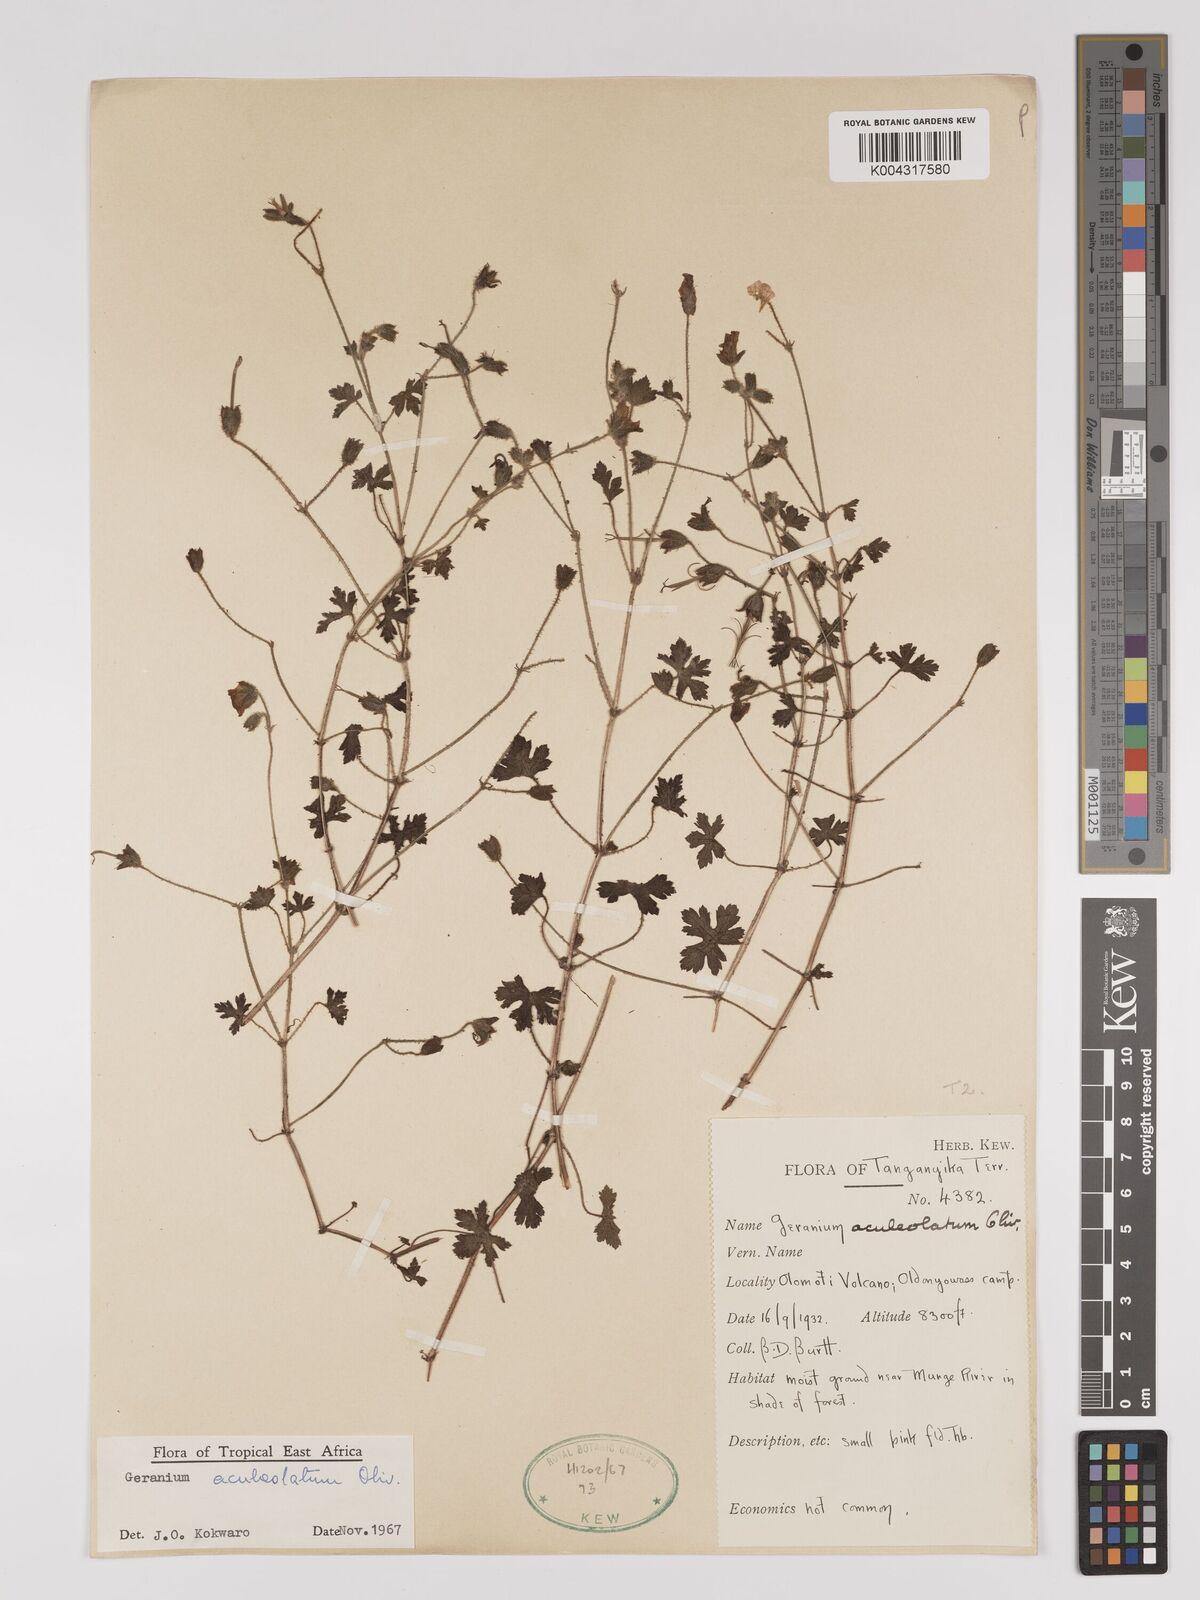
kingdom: Plantae
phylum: Tracheophyta
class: Magnoliopsida
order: Geraniales
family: Geraniaceae
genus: Geranium
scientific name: Geranium aculeolatum
